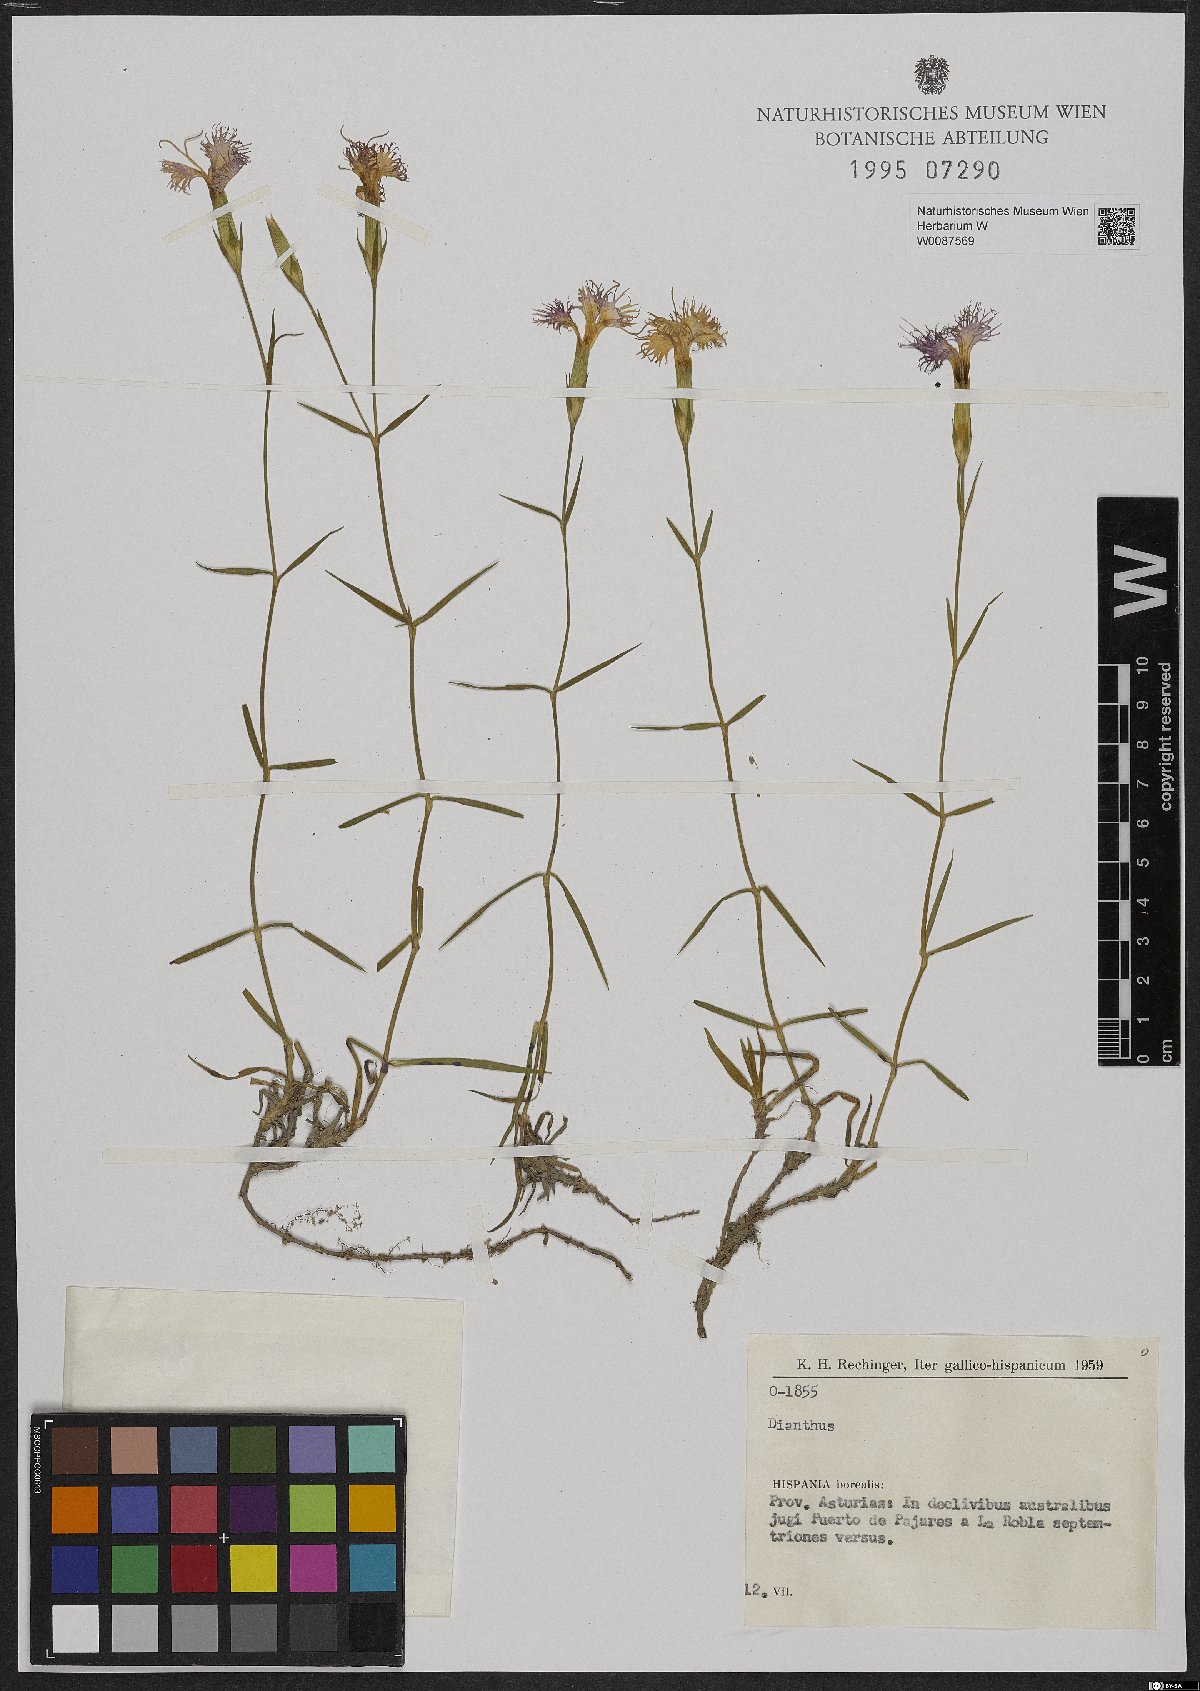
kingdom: Plantae
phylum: Tracheophyta
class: Magnoliopsida
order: Caryophyllales
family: Caryophyllaceae
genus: Dianthus
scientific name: Dianthus
